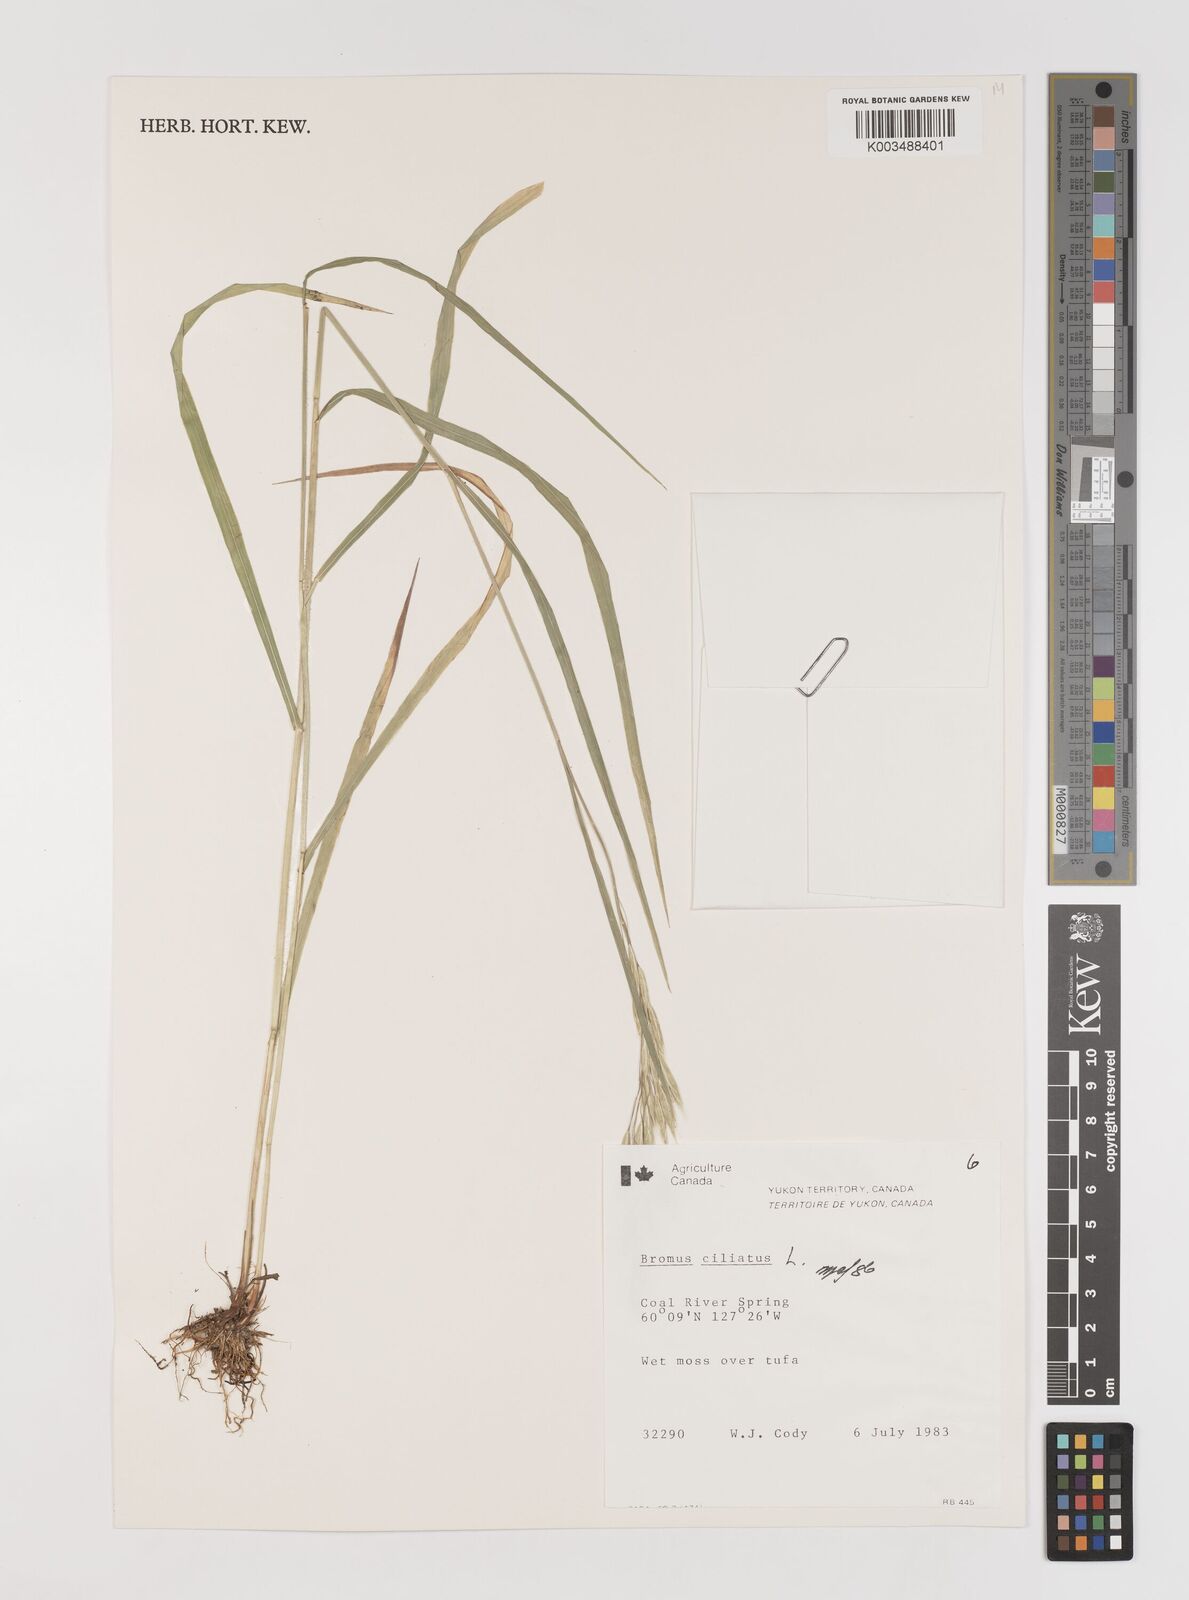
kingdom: Plantae
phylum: Tracheophyta
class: Liliopsida
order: Poales
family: Poaceae
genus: Bromus
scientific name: Bromus ciliatus
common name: Fringe brome
